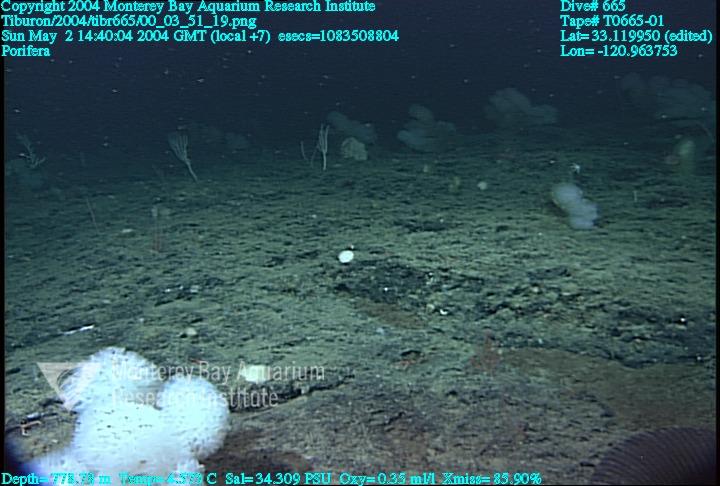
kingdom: Animalia
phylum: Porifera
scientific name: Porifera
